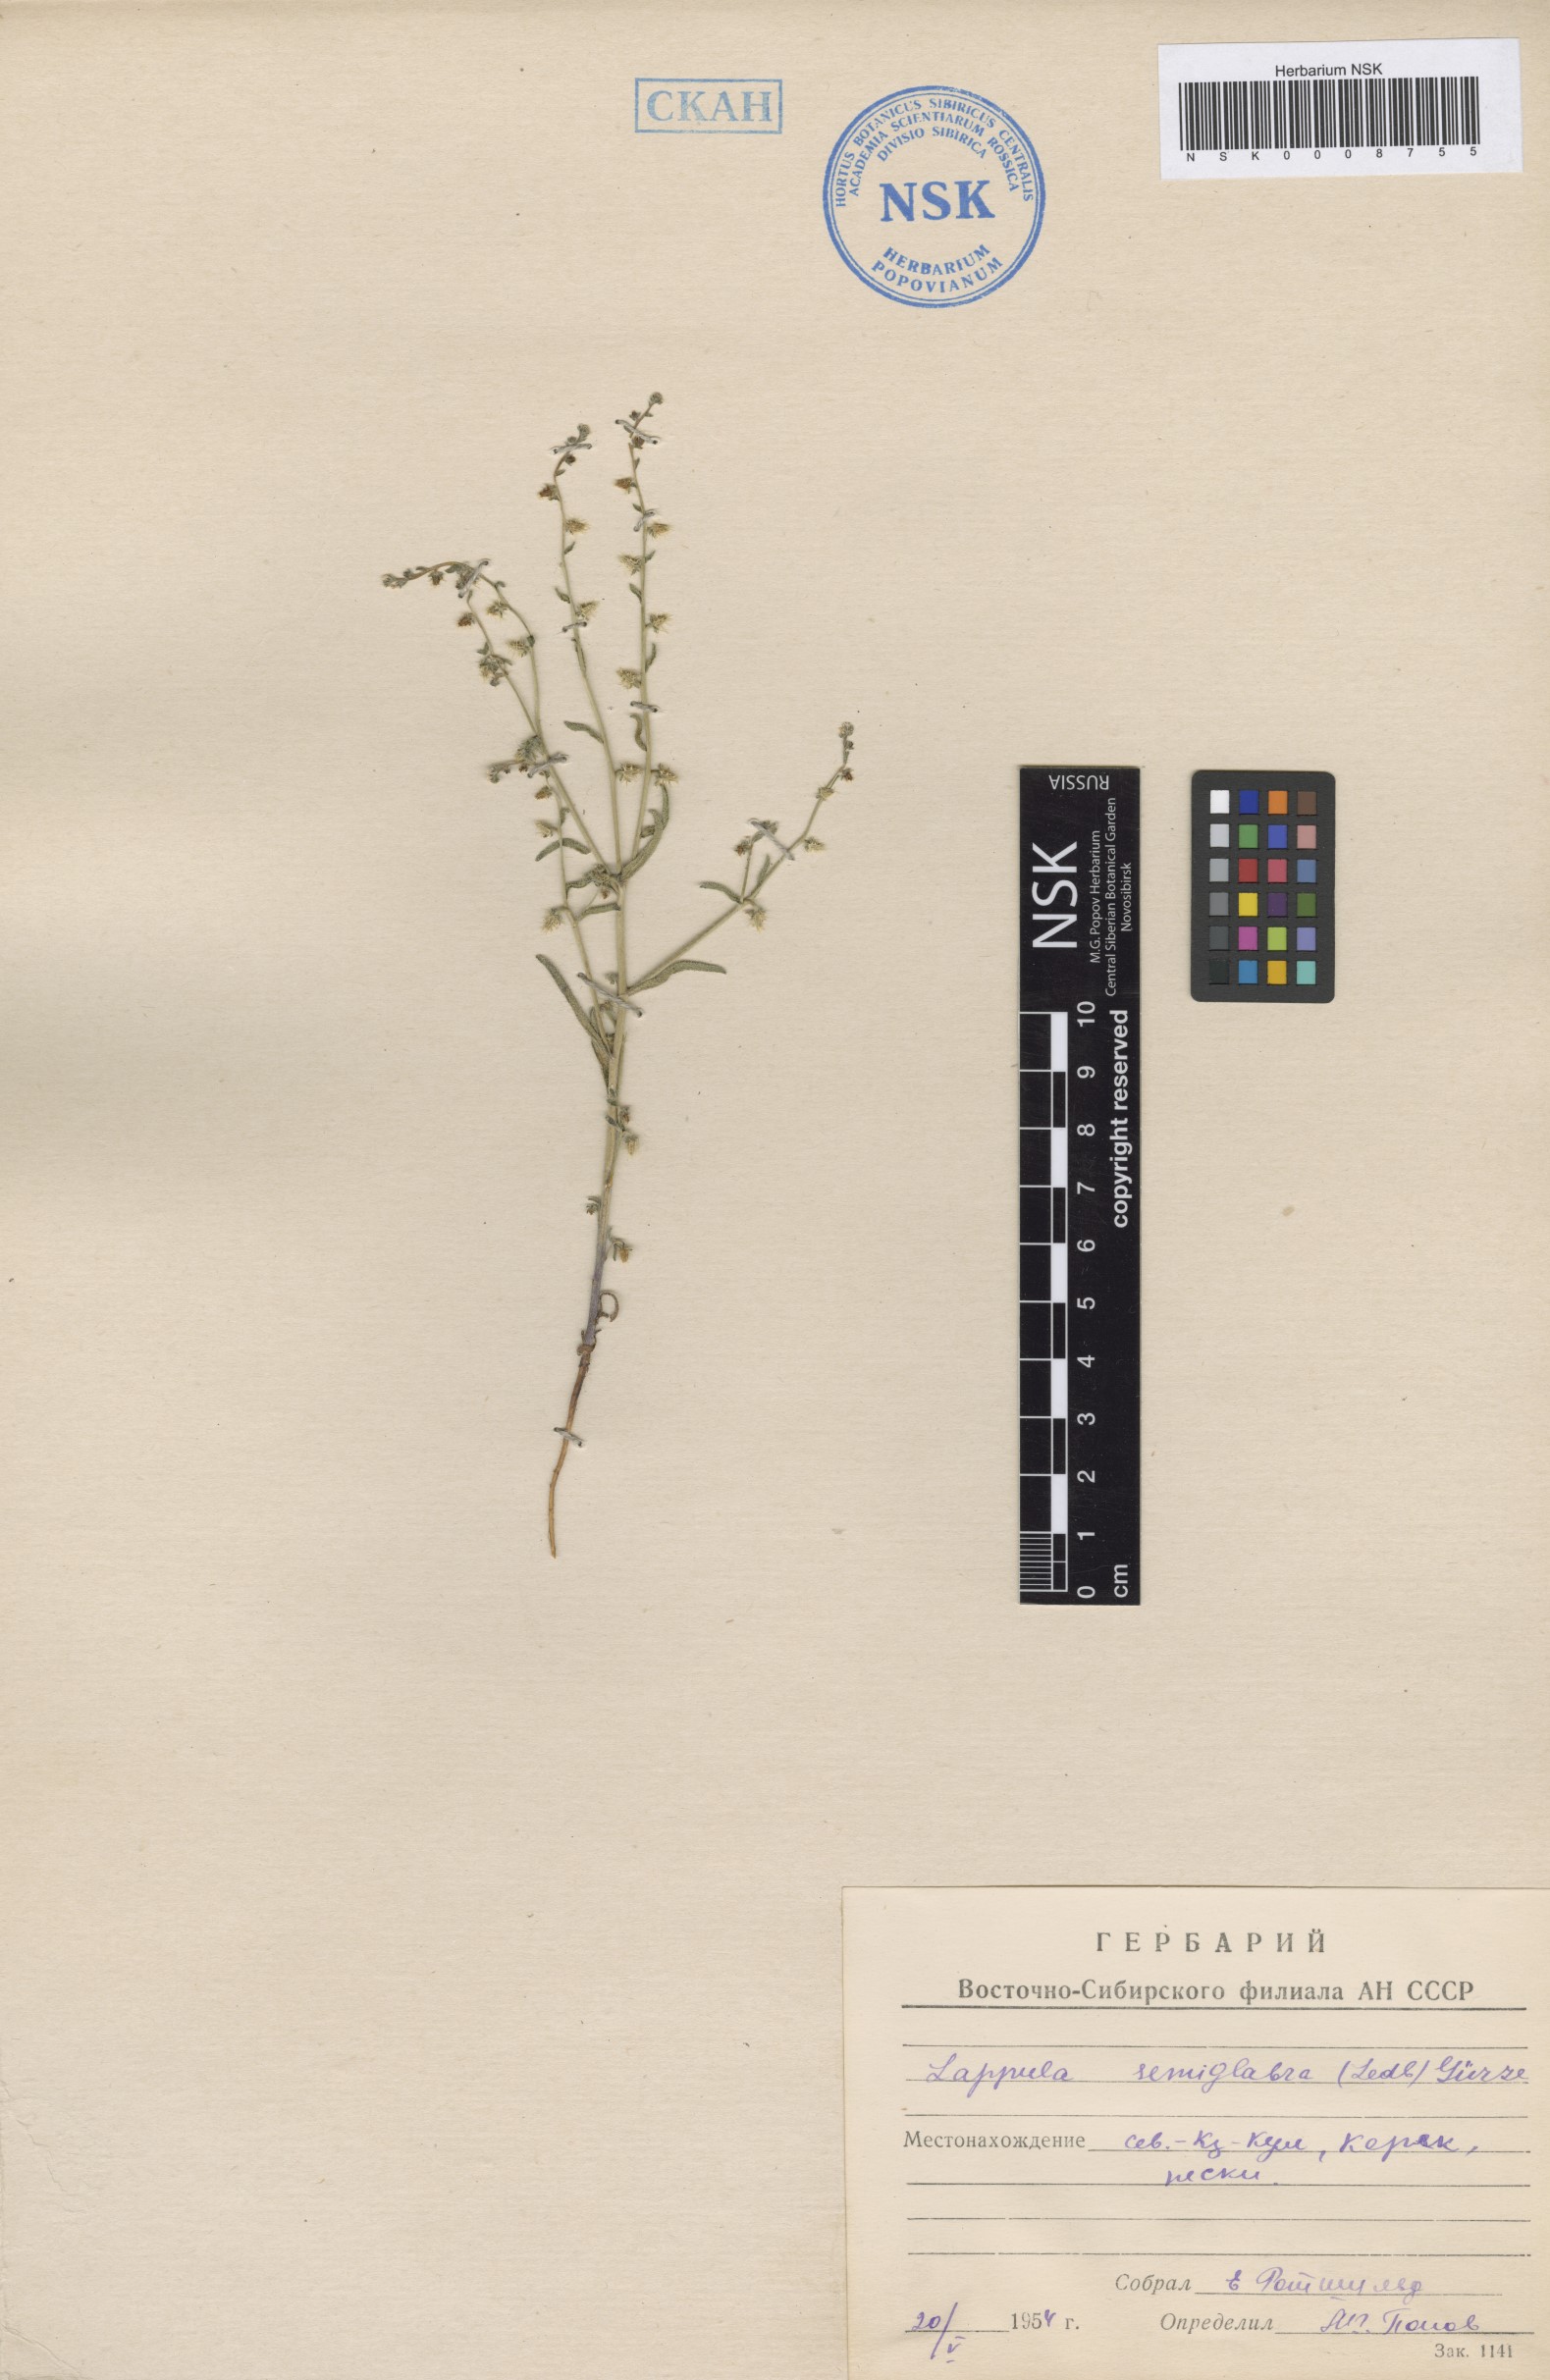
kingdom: Plantae
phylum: Tracheophyta
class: Magnoliopsida
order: Boraginales
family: Boraginaceae
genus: Lappula
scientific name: Lappula patula
